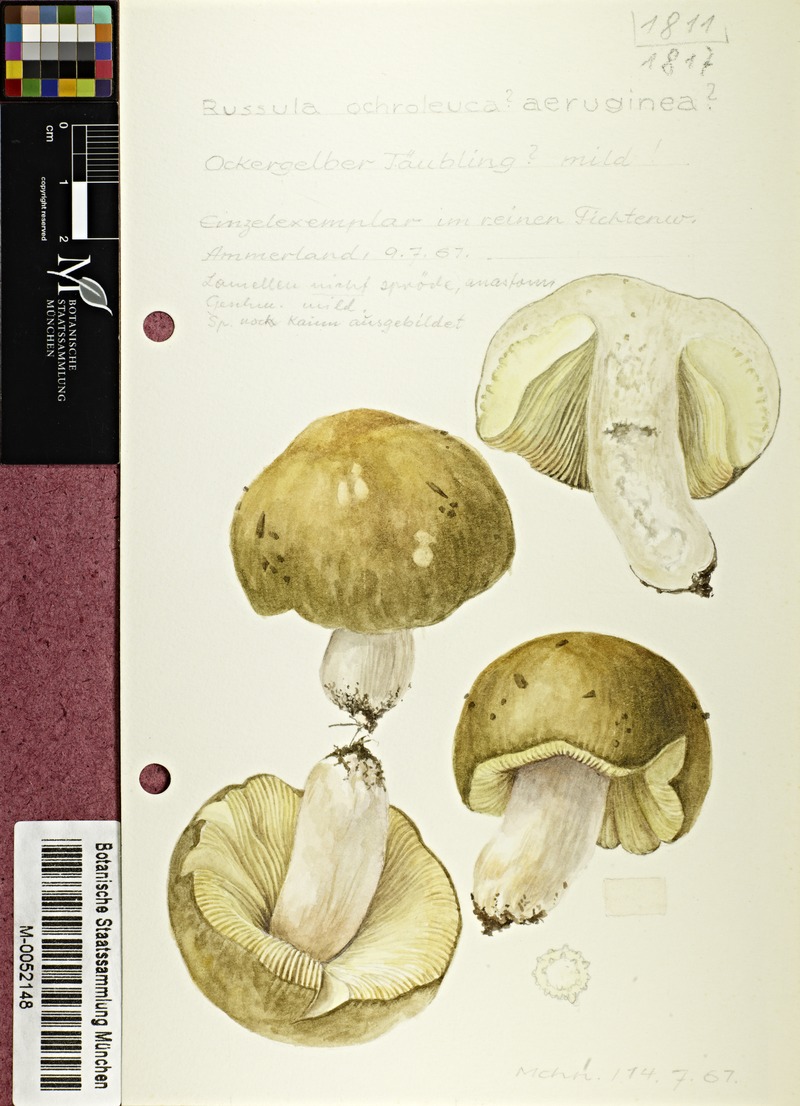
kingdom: Fungi
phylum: Basidiomycota
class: Agaricomycetes
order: Russulales
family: Russulaceae
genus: Russula
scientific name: Russula ochroleuca
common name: Common yellow russula
